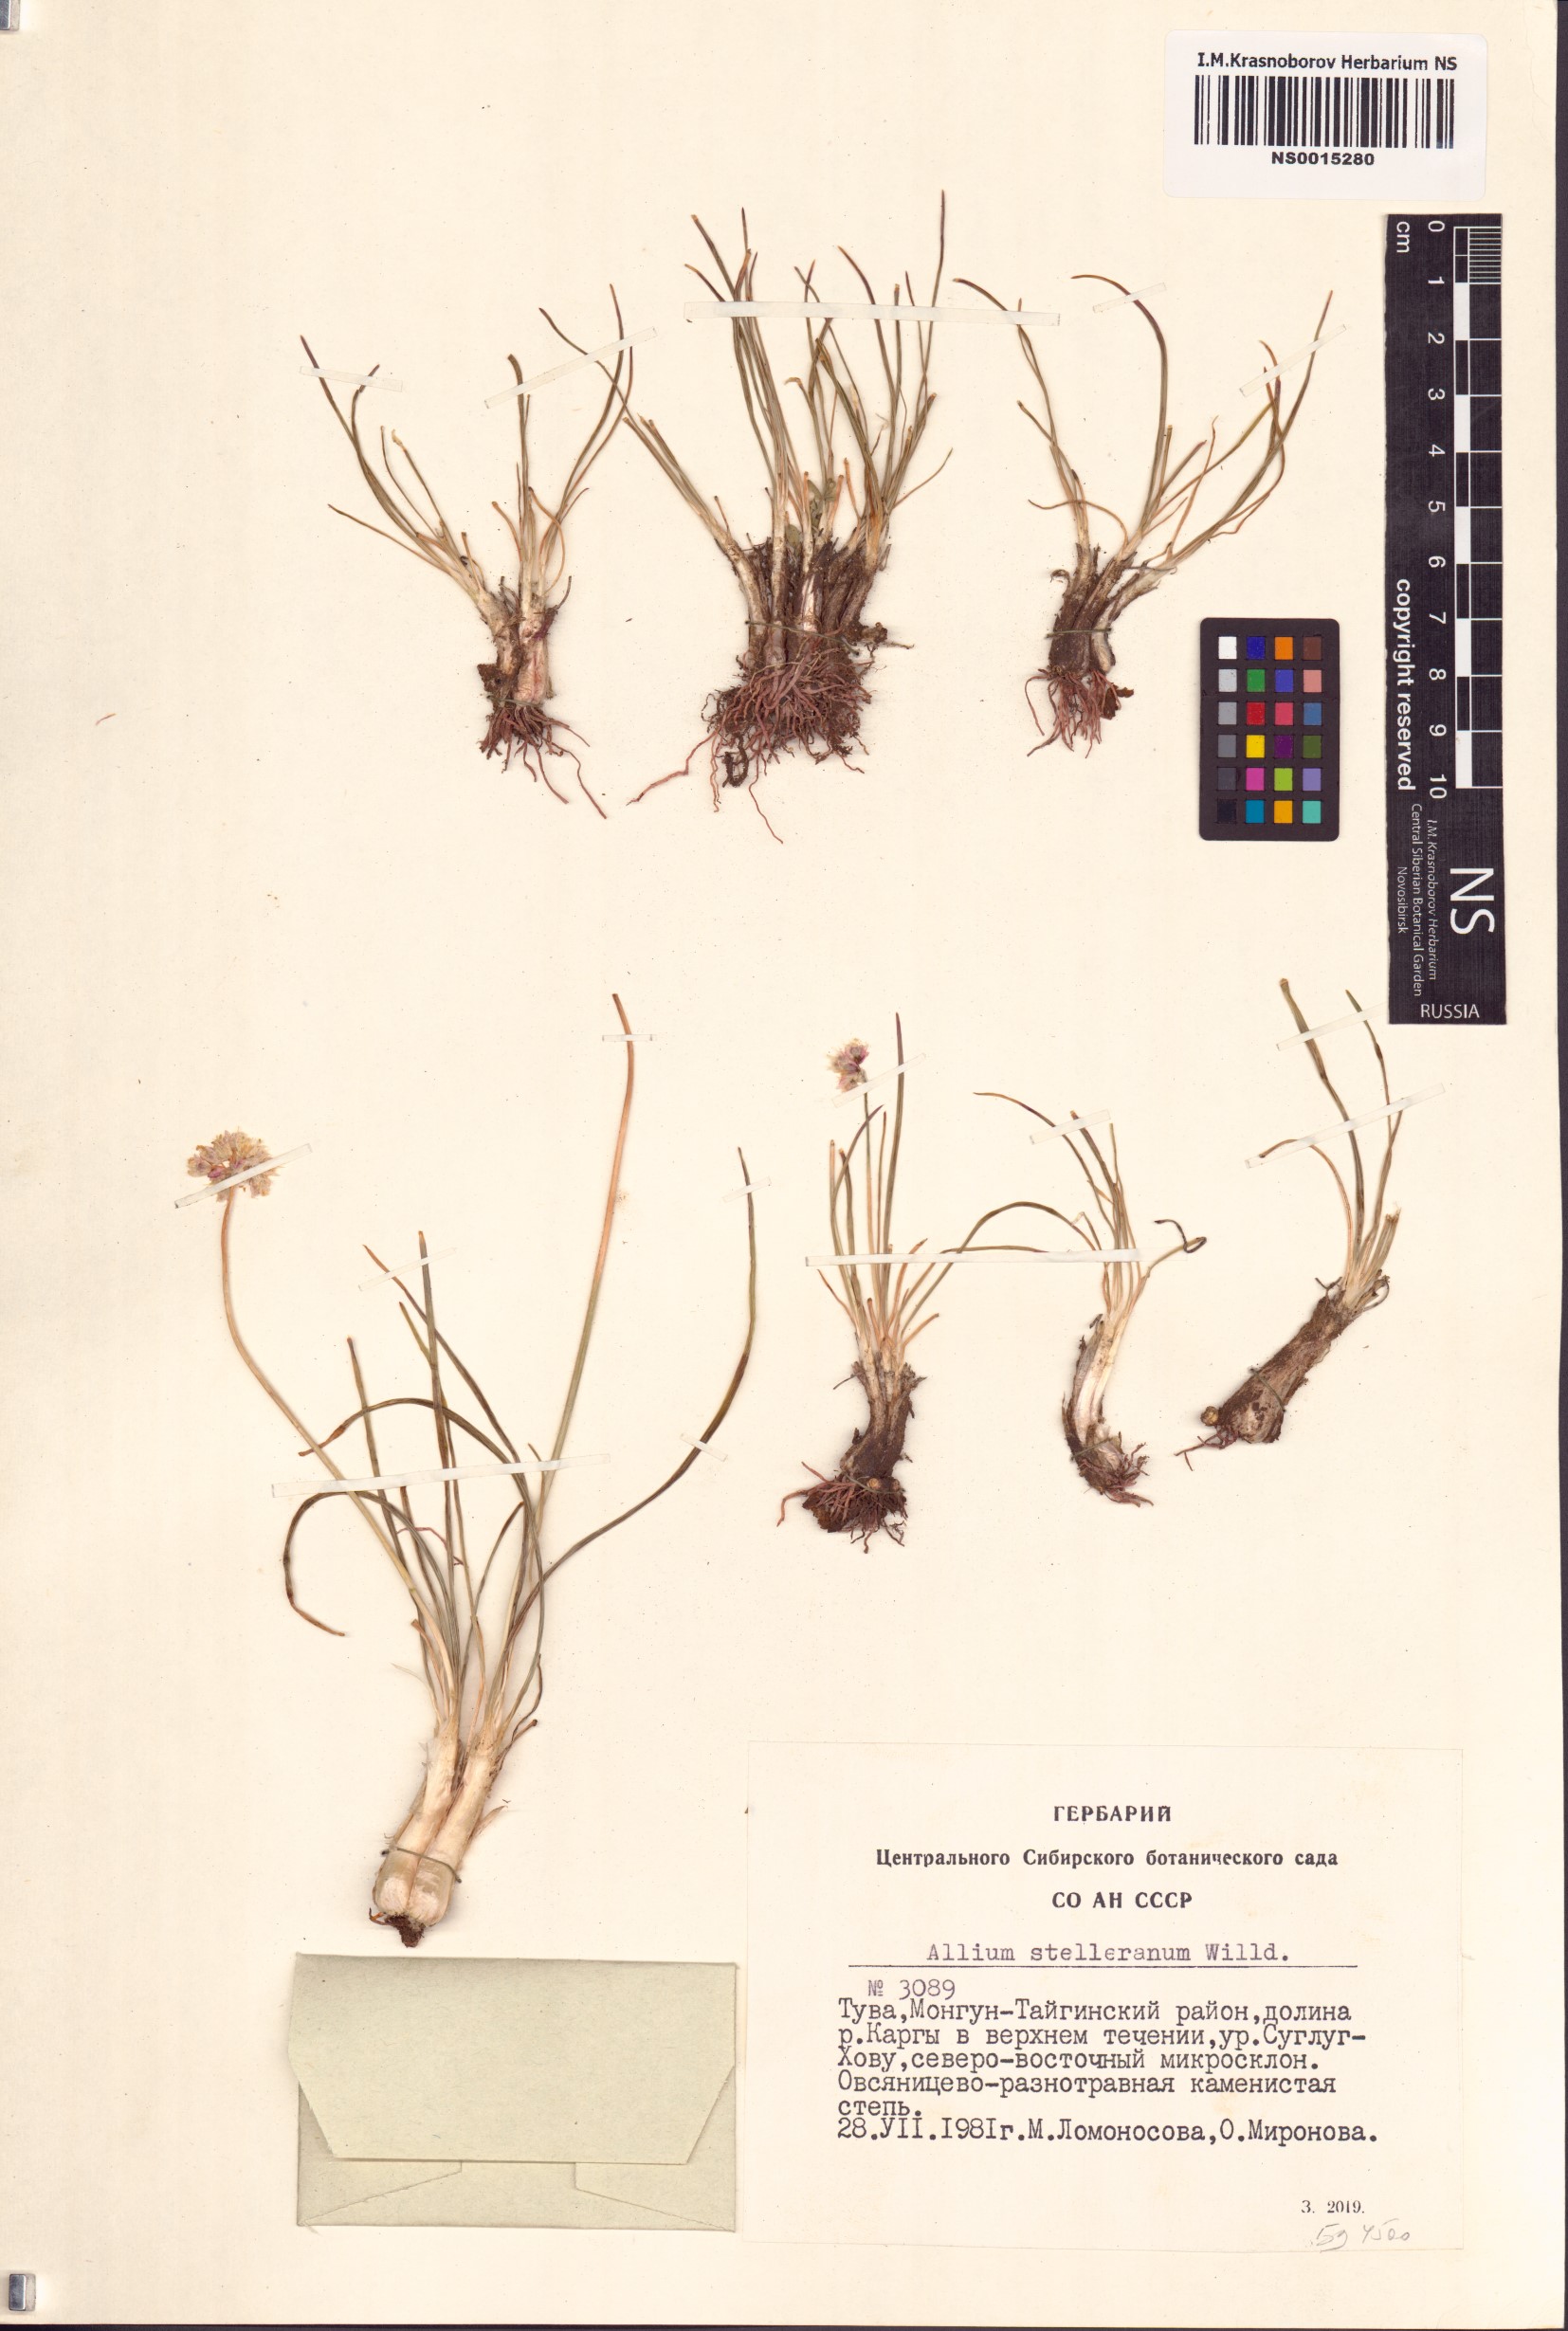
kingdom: Plantae
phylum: Tracheophyta
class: Liliopsida
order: Asparagales
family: Amaryllidaceae
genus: Allium
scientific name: Allium stellerianum
